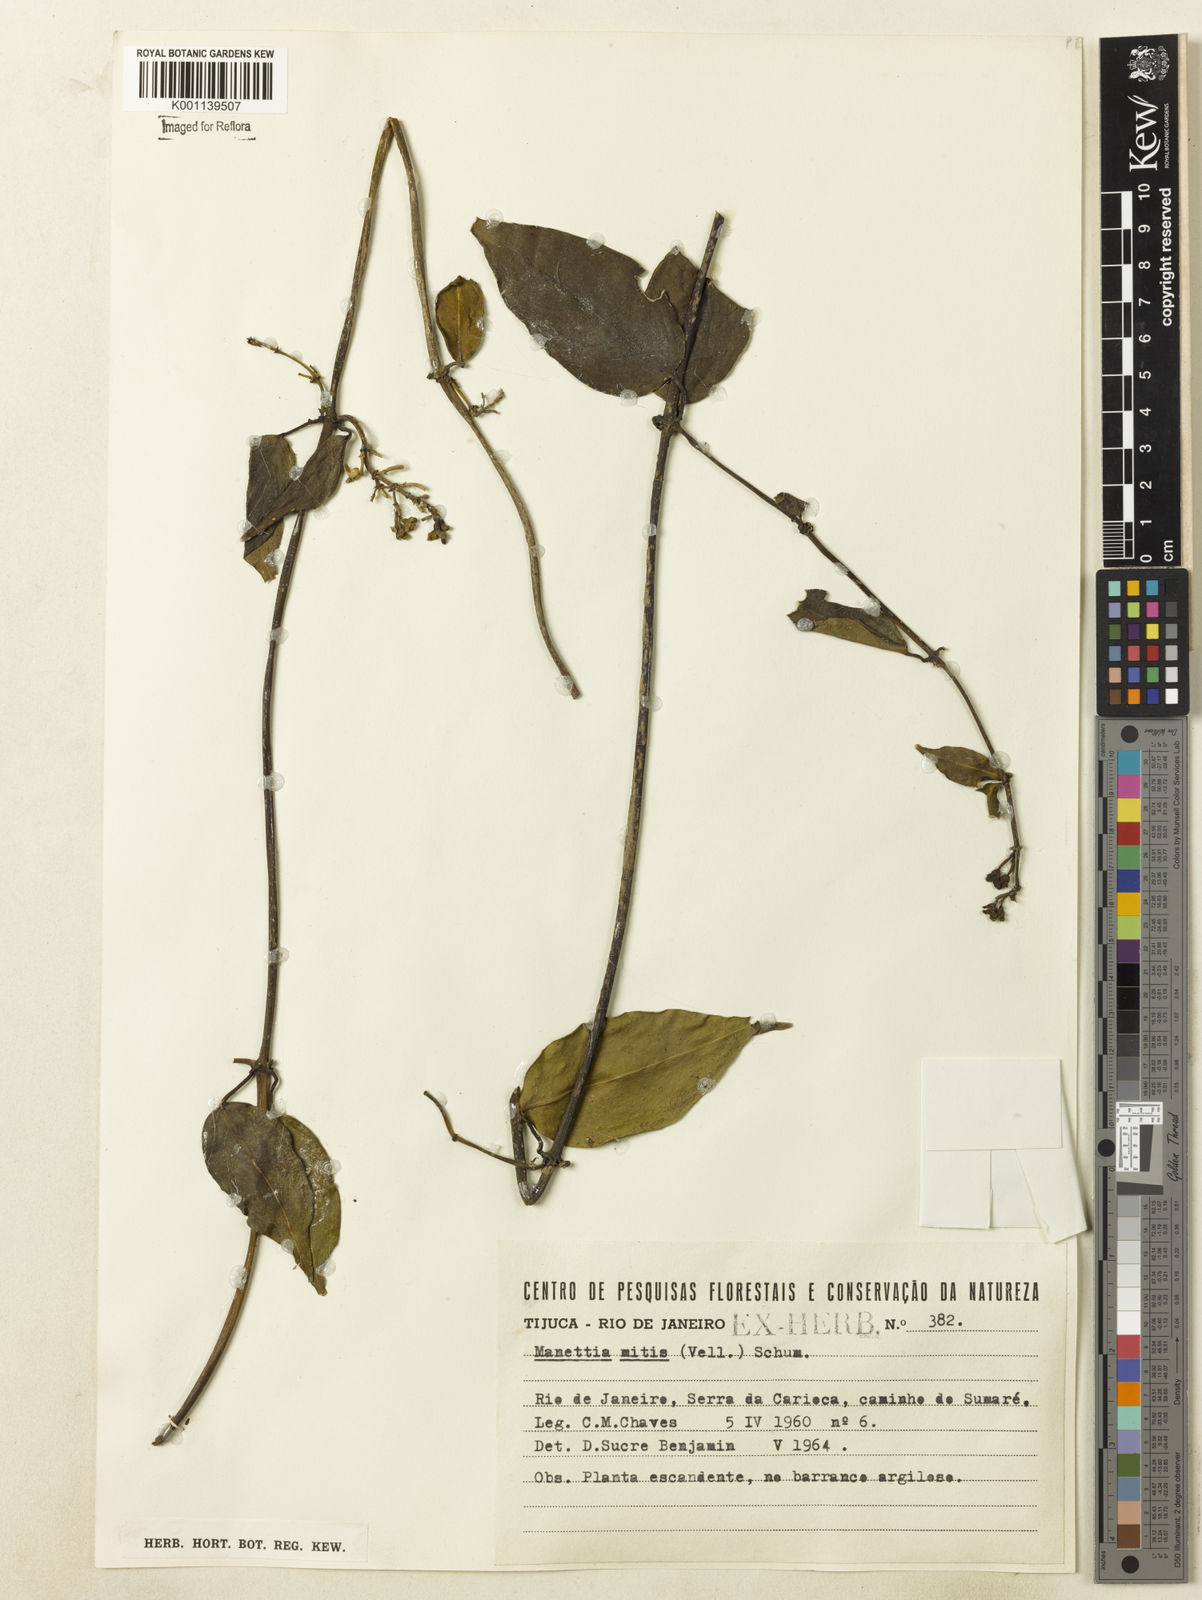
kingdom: Plantae
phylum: Tracheophyta
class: Magnoliopsida
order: Gentianales
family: Rubiaceae
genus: Manettia
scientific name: Manettia mitis
